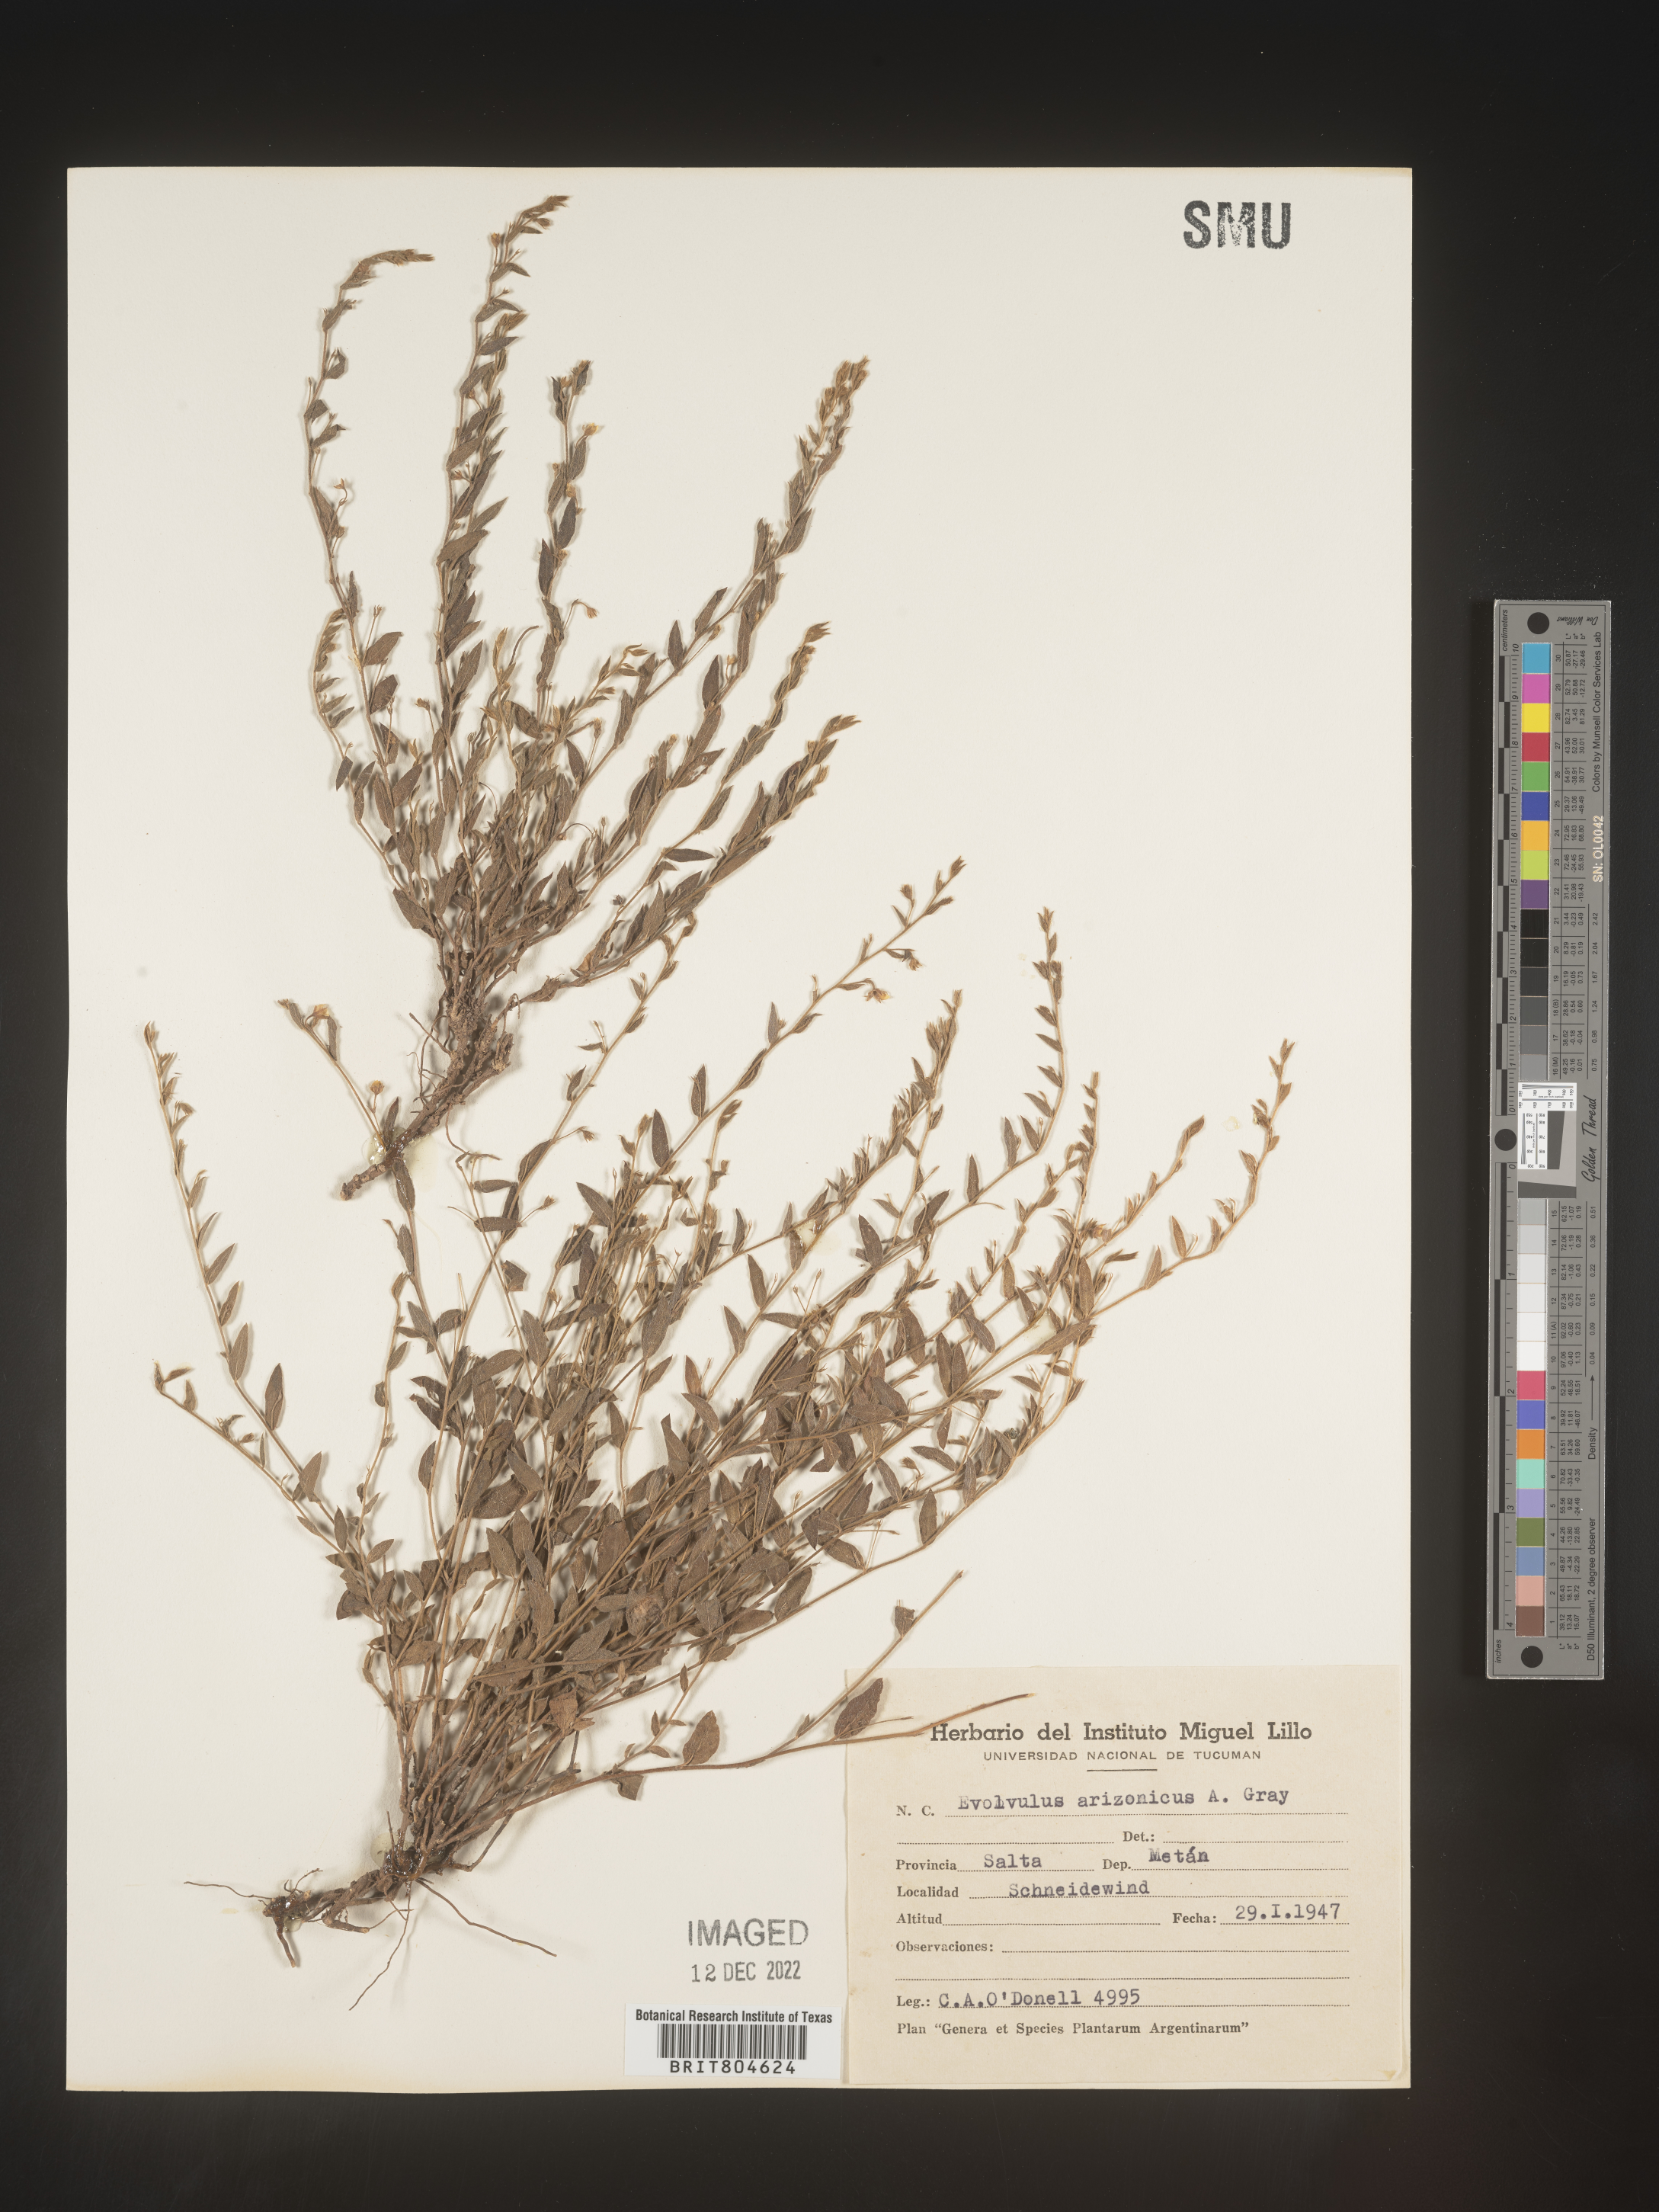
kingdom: Plantae
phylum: Tracheophyta
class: Magnoliopsida
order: Solanales
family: Convolvulaceae
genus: Evolvulus
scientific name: Evolvulus
